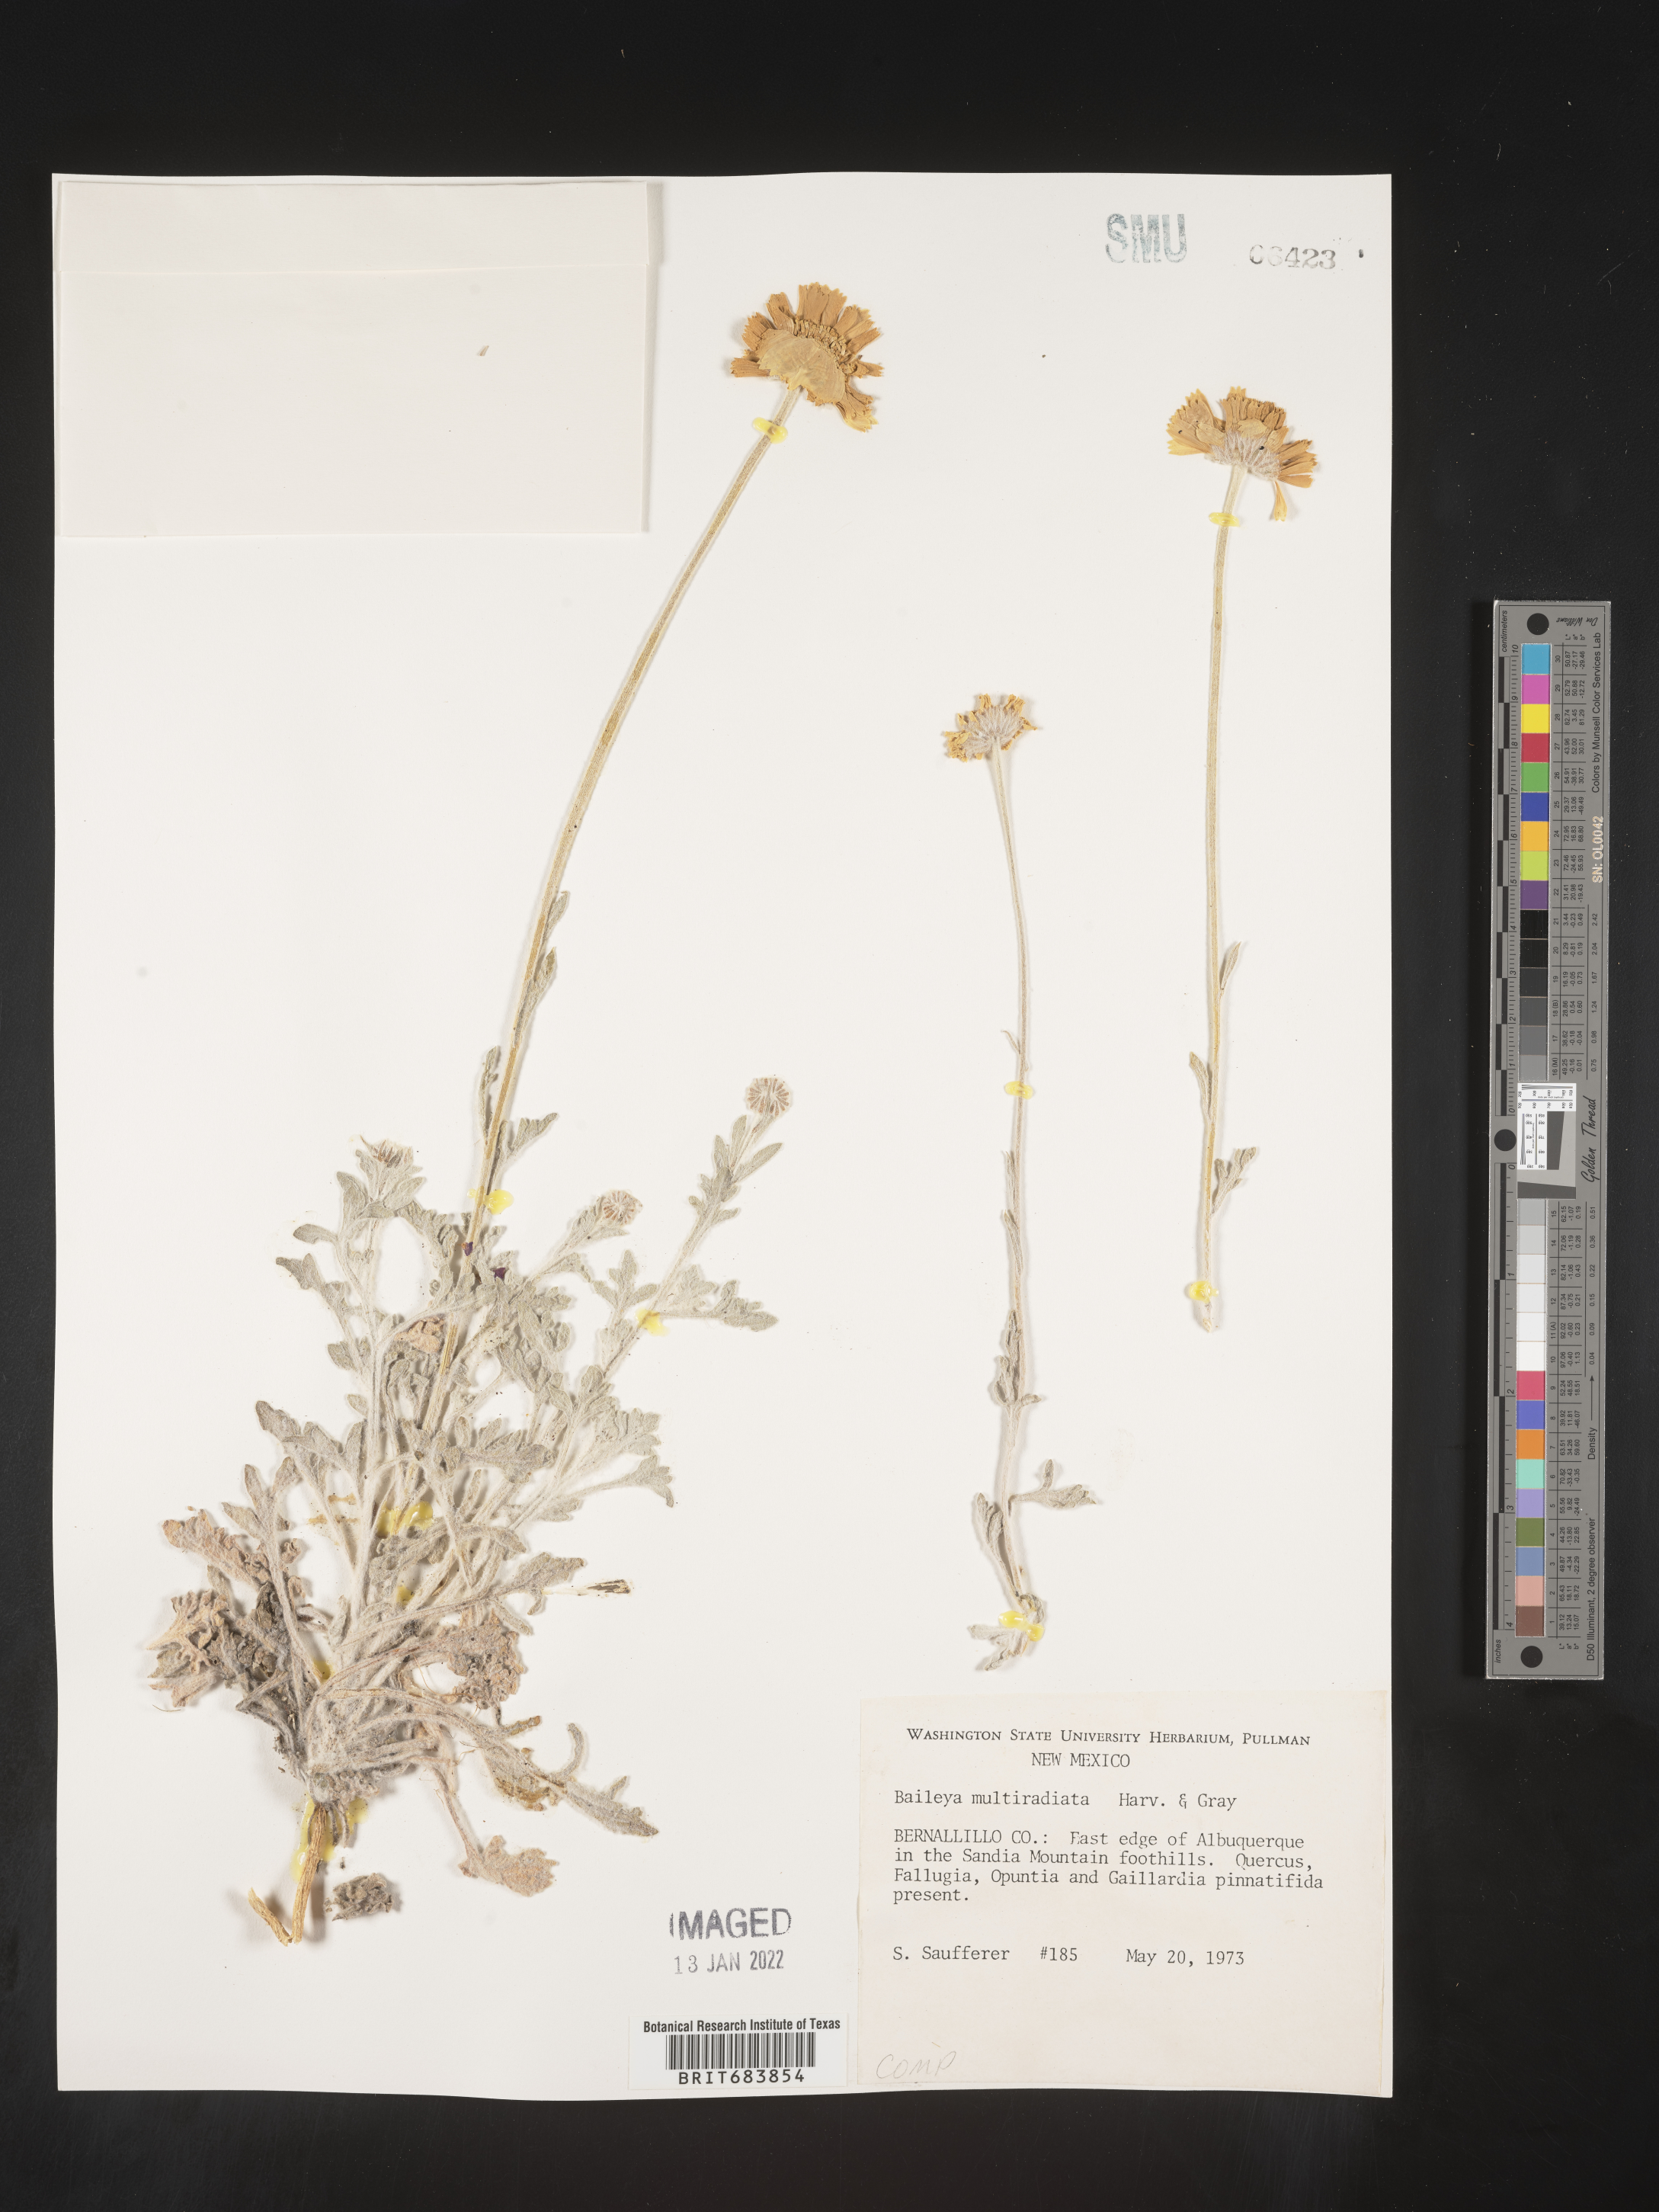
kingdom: Plantae
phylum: Tracheophyta
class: Magnoliopsida
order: Asterales
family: Asteraceae
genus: Baileya
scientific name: Baileya multiradiata
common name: Desert-marigold
